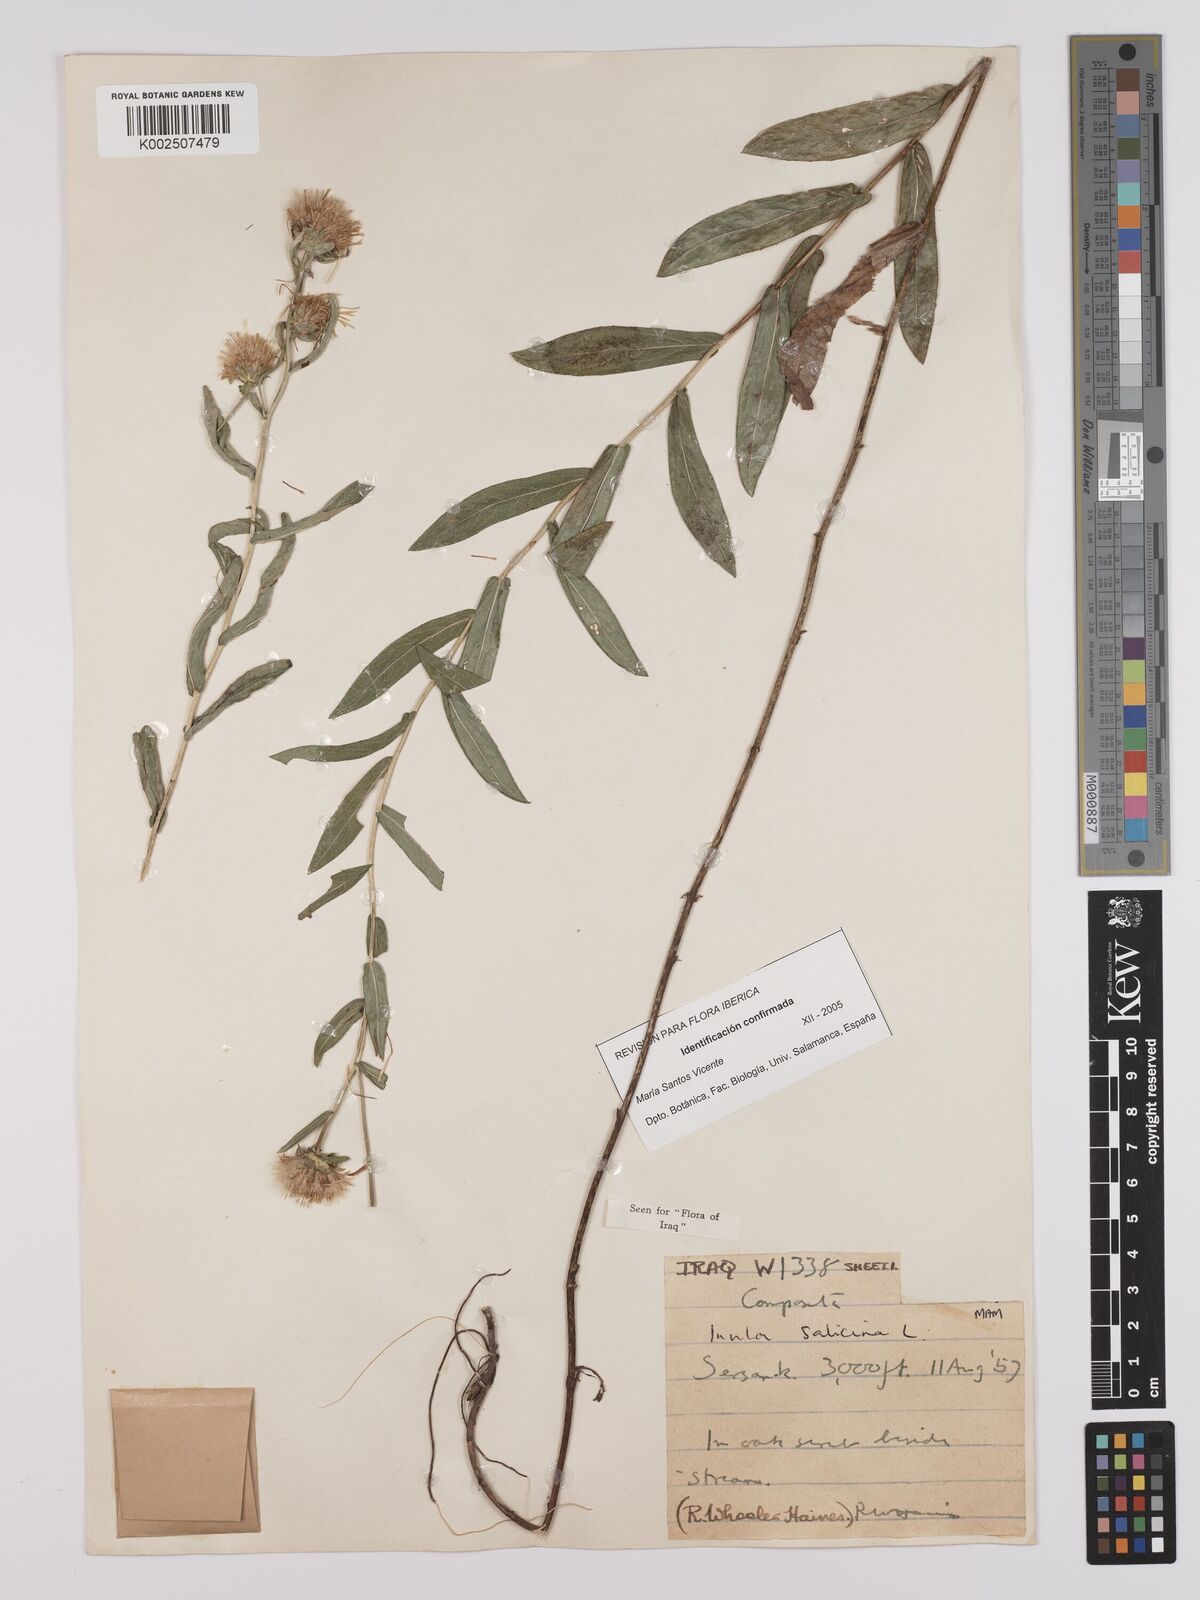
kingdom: Plantae
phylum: Tracheophyta
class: Magnoliopsida
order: Asterales
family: Asteraceae
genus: Pentanema
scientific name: Pentanema salicinum
